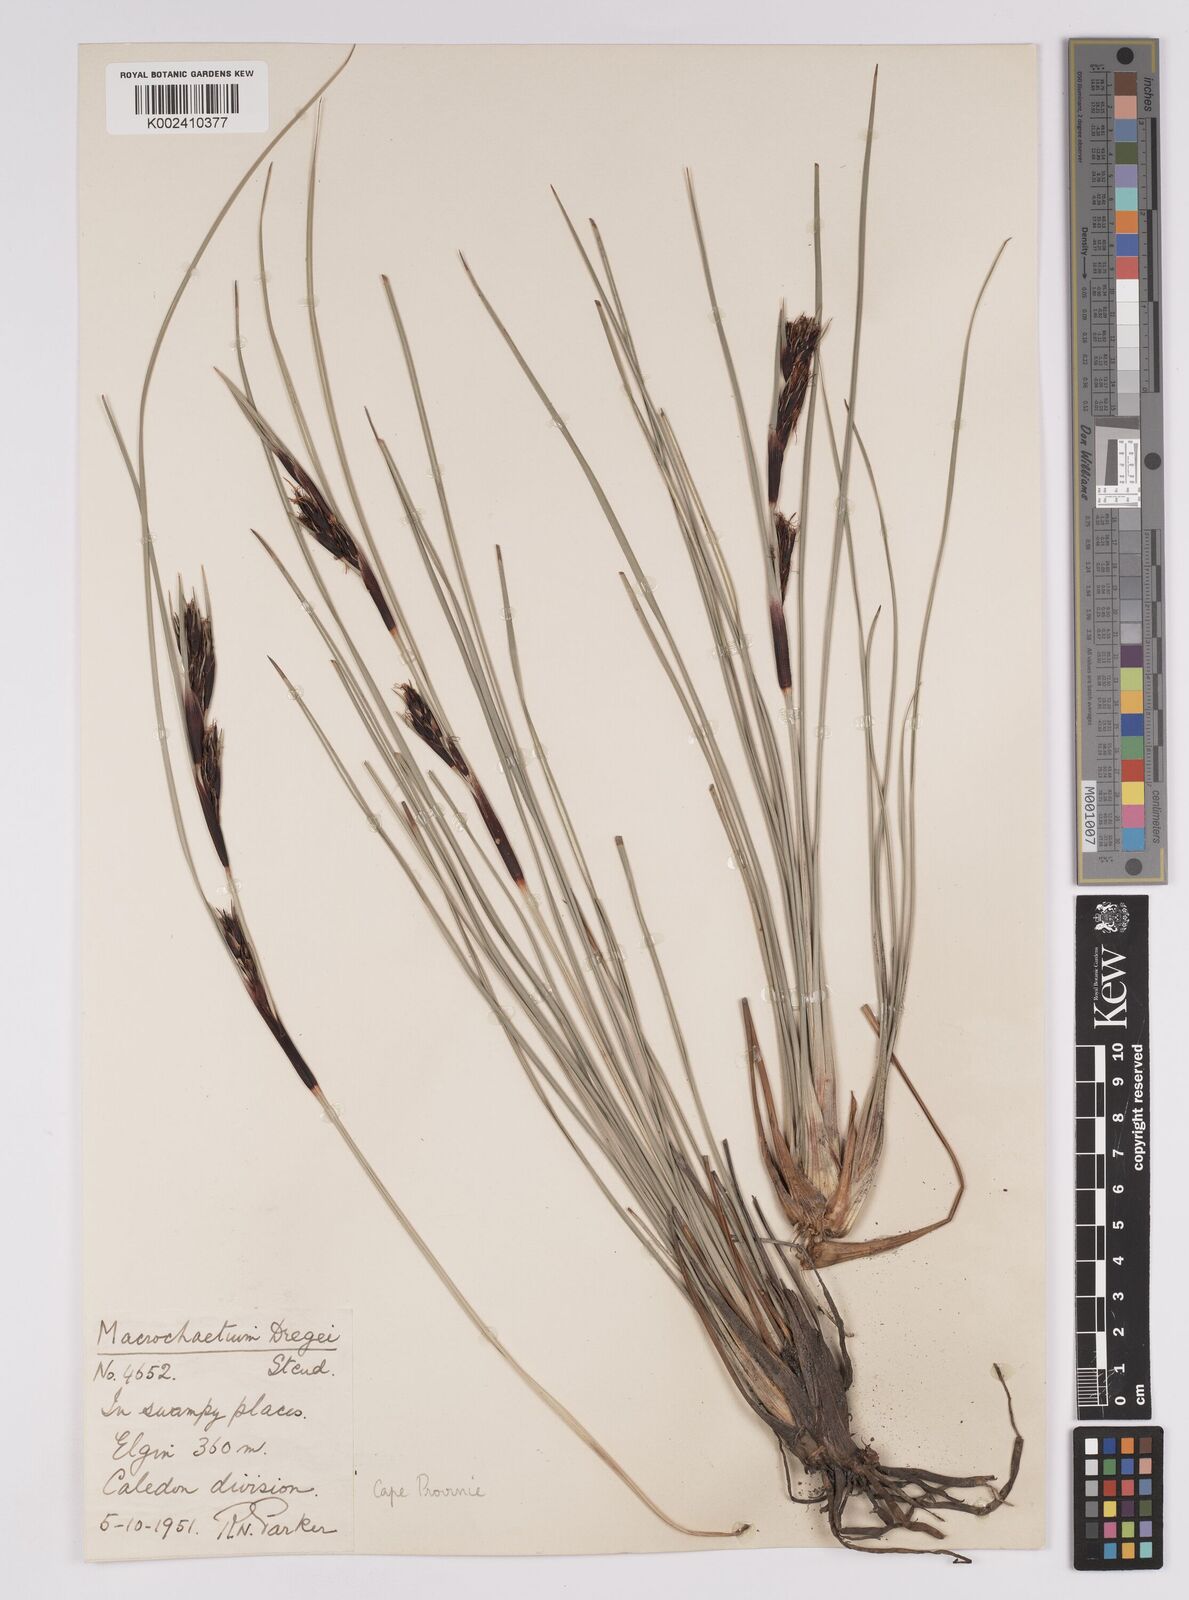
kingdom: Plantae
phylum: Tracheophyta
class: Liliopsida
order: Poales
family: Cyperaceae
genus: Cyathocoma
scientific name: Cyathocoma hexandra
